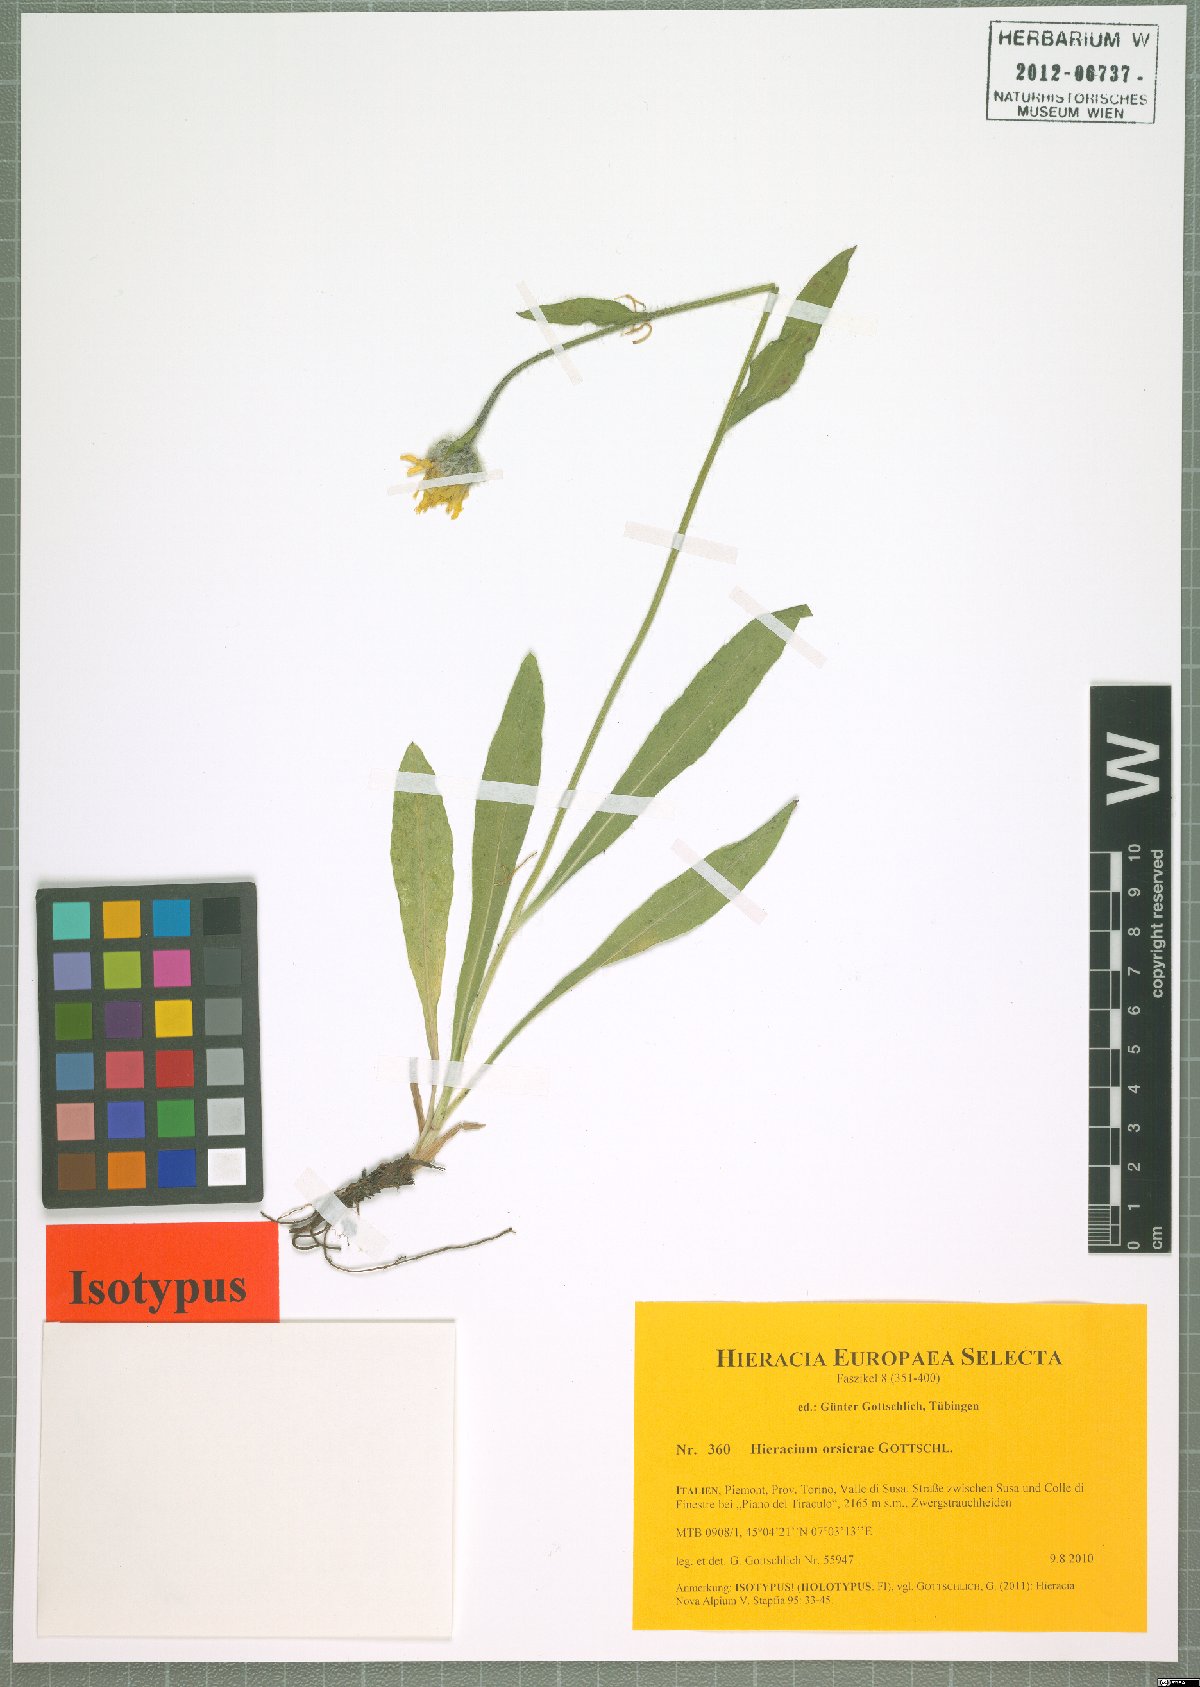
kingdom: Plantae
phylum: Tracheophyta
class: Magnoliopsida
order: Asterales
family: Asteraceae
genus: Hieracium
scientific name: Hieracium orsierae
